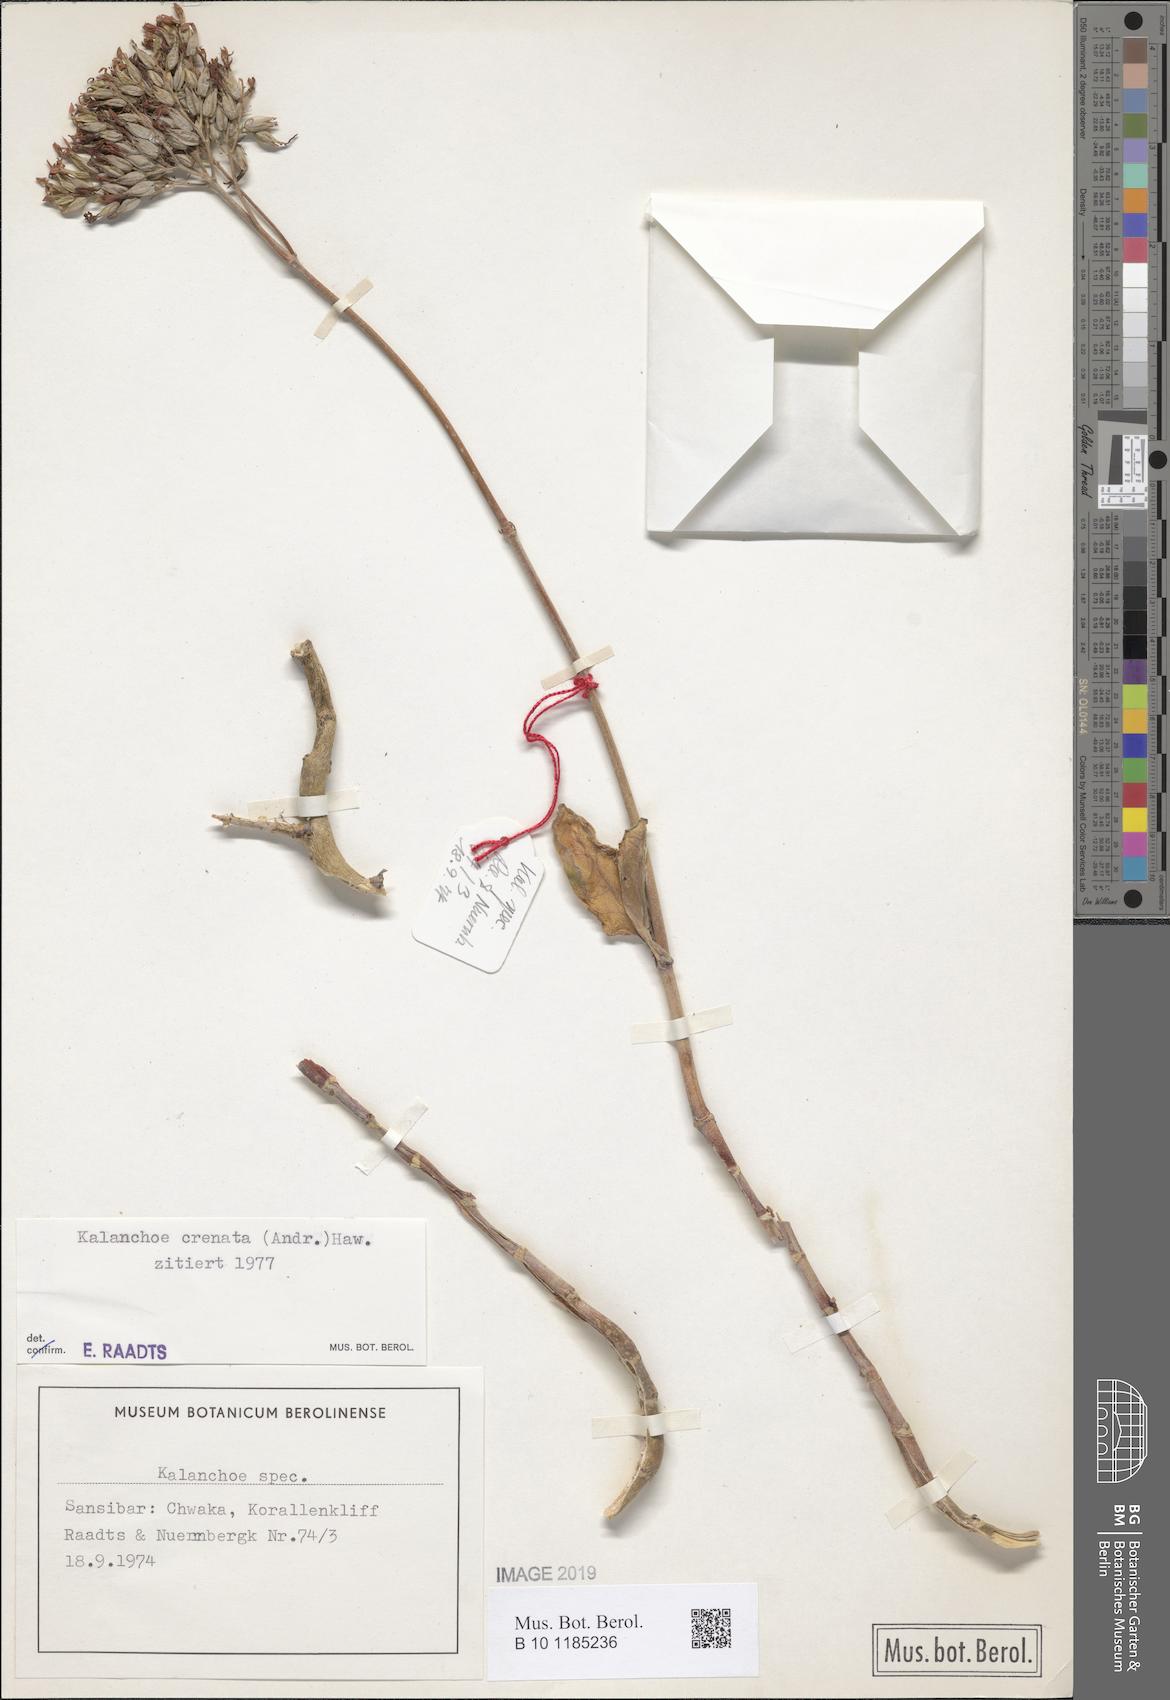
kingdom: Plantae
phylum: Tracheophyta
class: Magnoliopsida
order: Saxifragales
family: Crassulaceae
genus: Kalanchoe
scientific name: Kalanchoe crenata
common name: Neverdie
